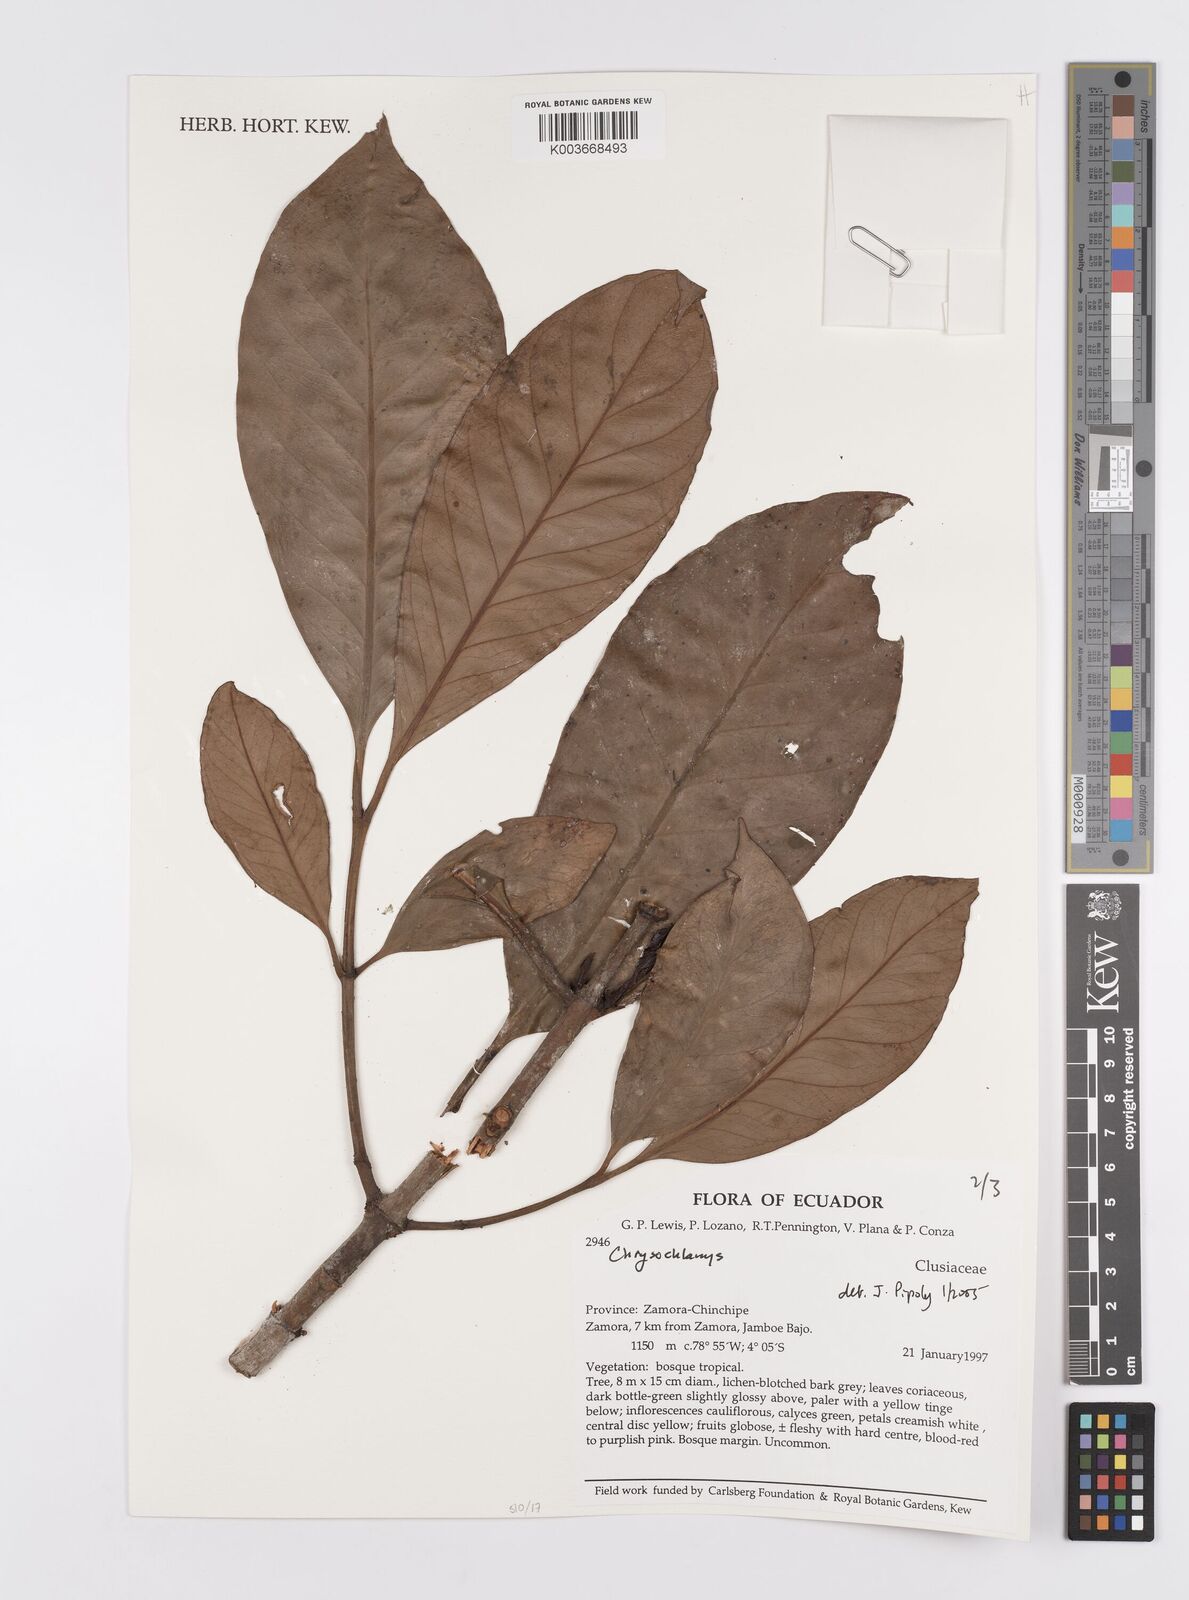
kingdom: Plantae
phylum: Tracheophyta
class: Magnoliopsida
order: Malpighiales
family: Clusiaceae
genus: Chrysochlamys
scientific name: Chrysochlamys
